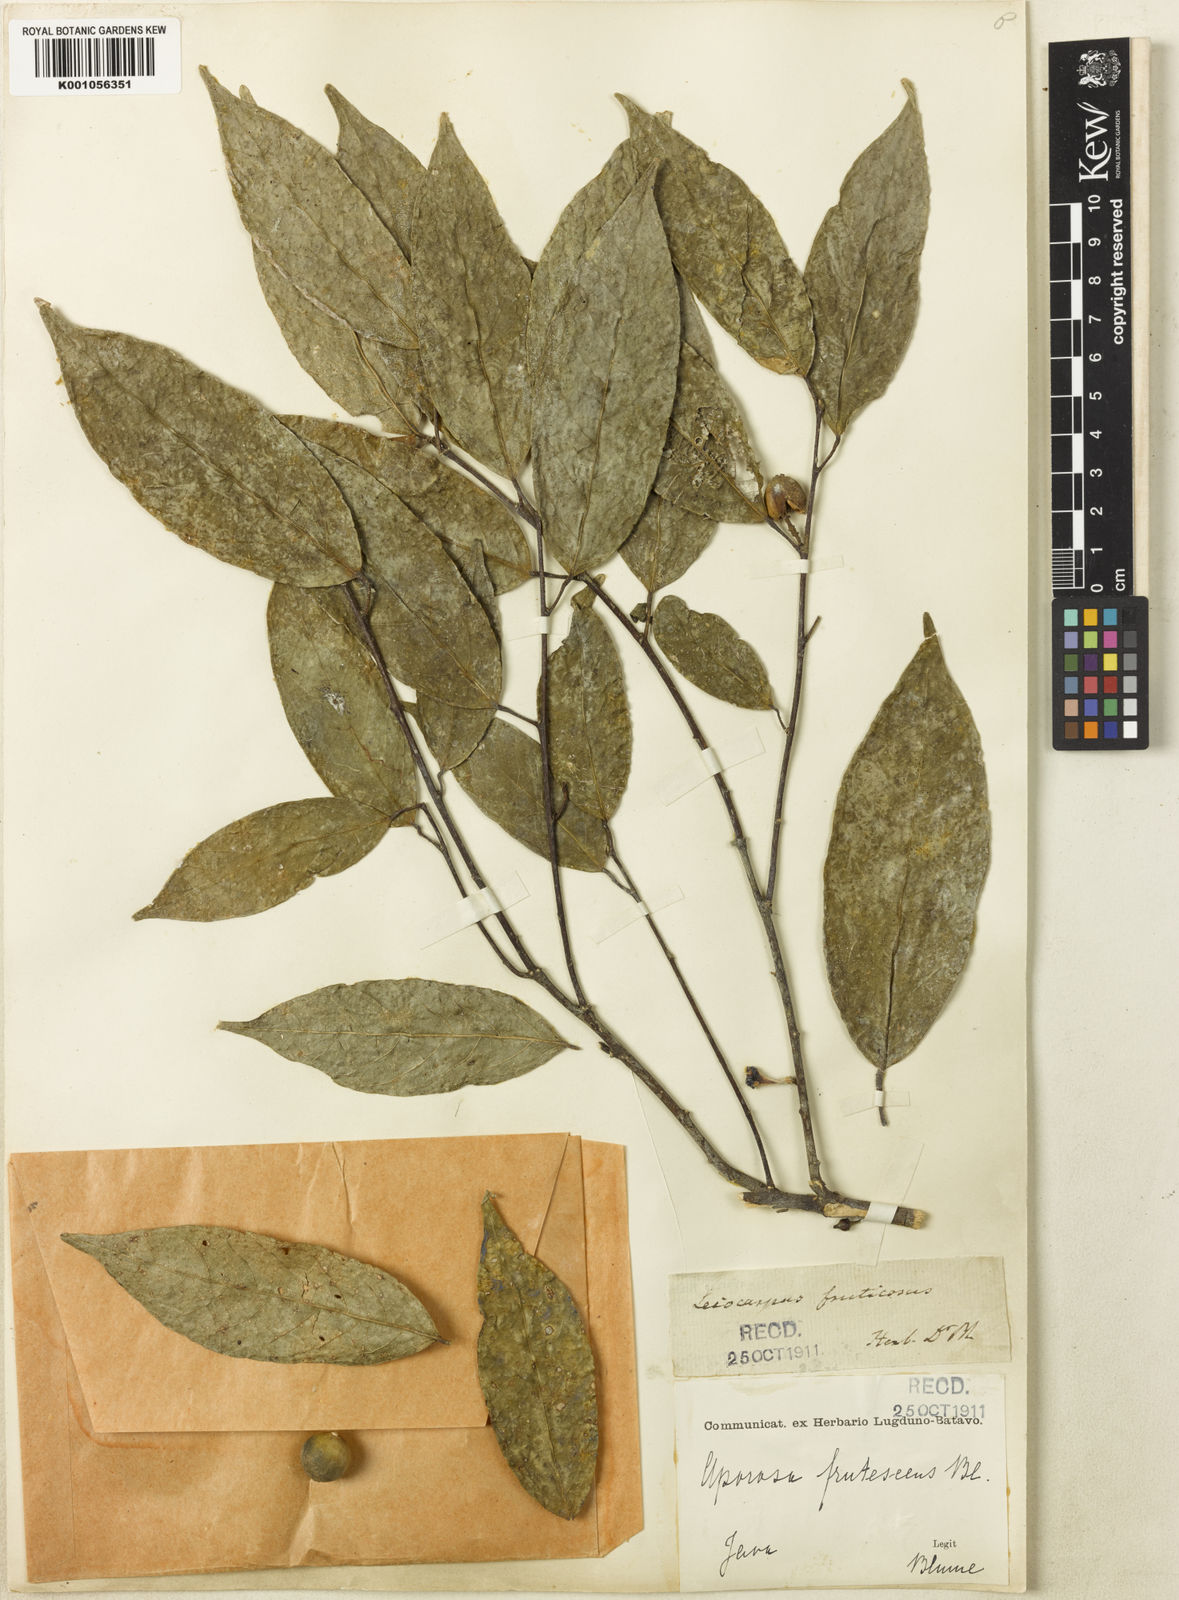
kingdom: Plantae
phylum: Tracheophyta
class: Magnoliopsida
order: Malpighiales
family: Phyllanthaceae
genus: Aporosa
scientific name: Aporosa frutescens
